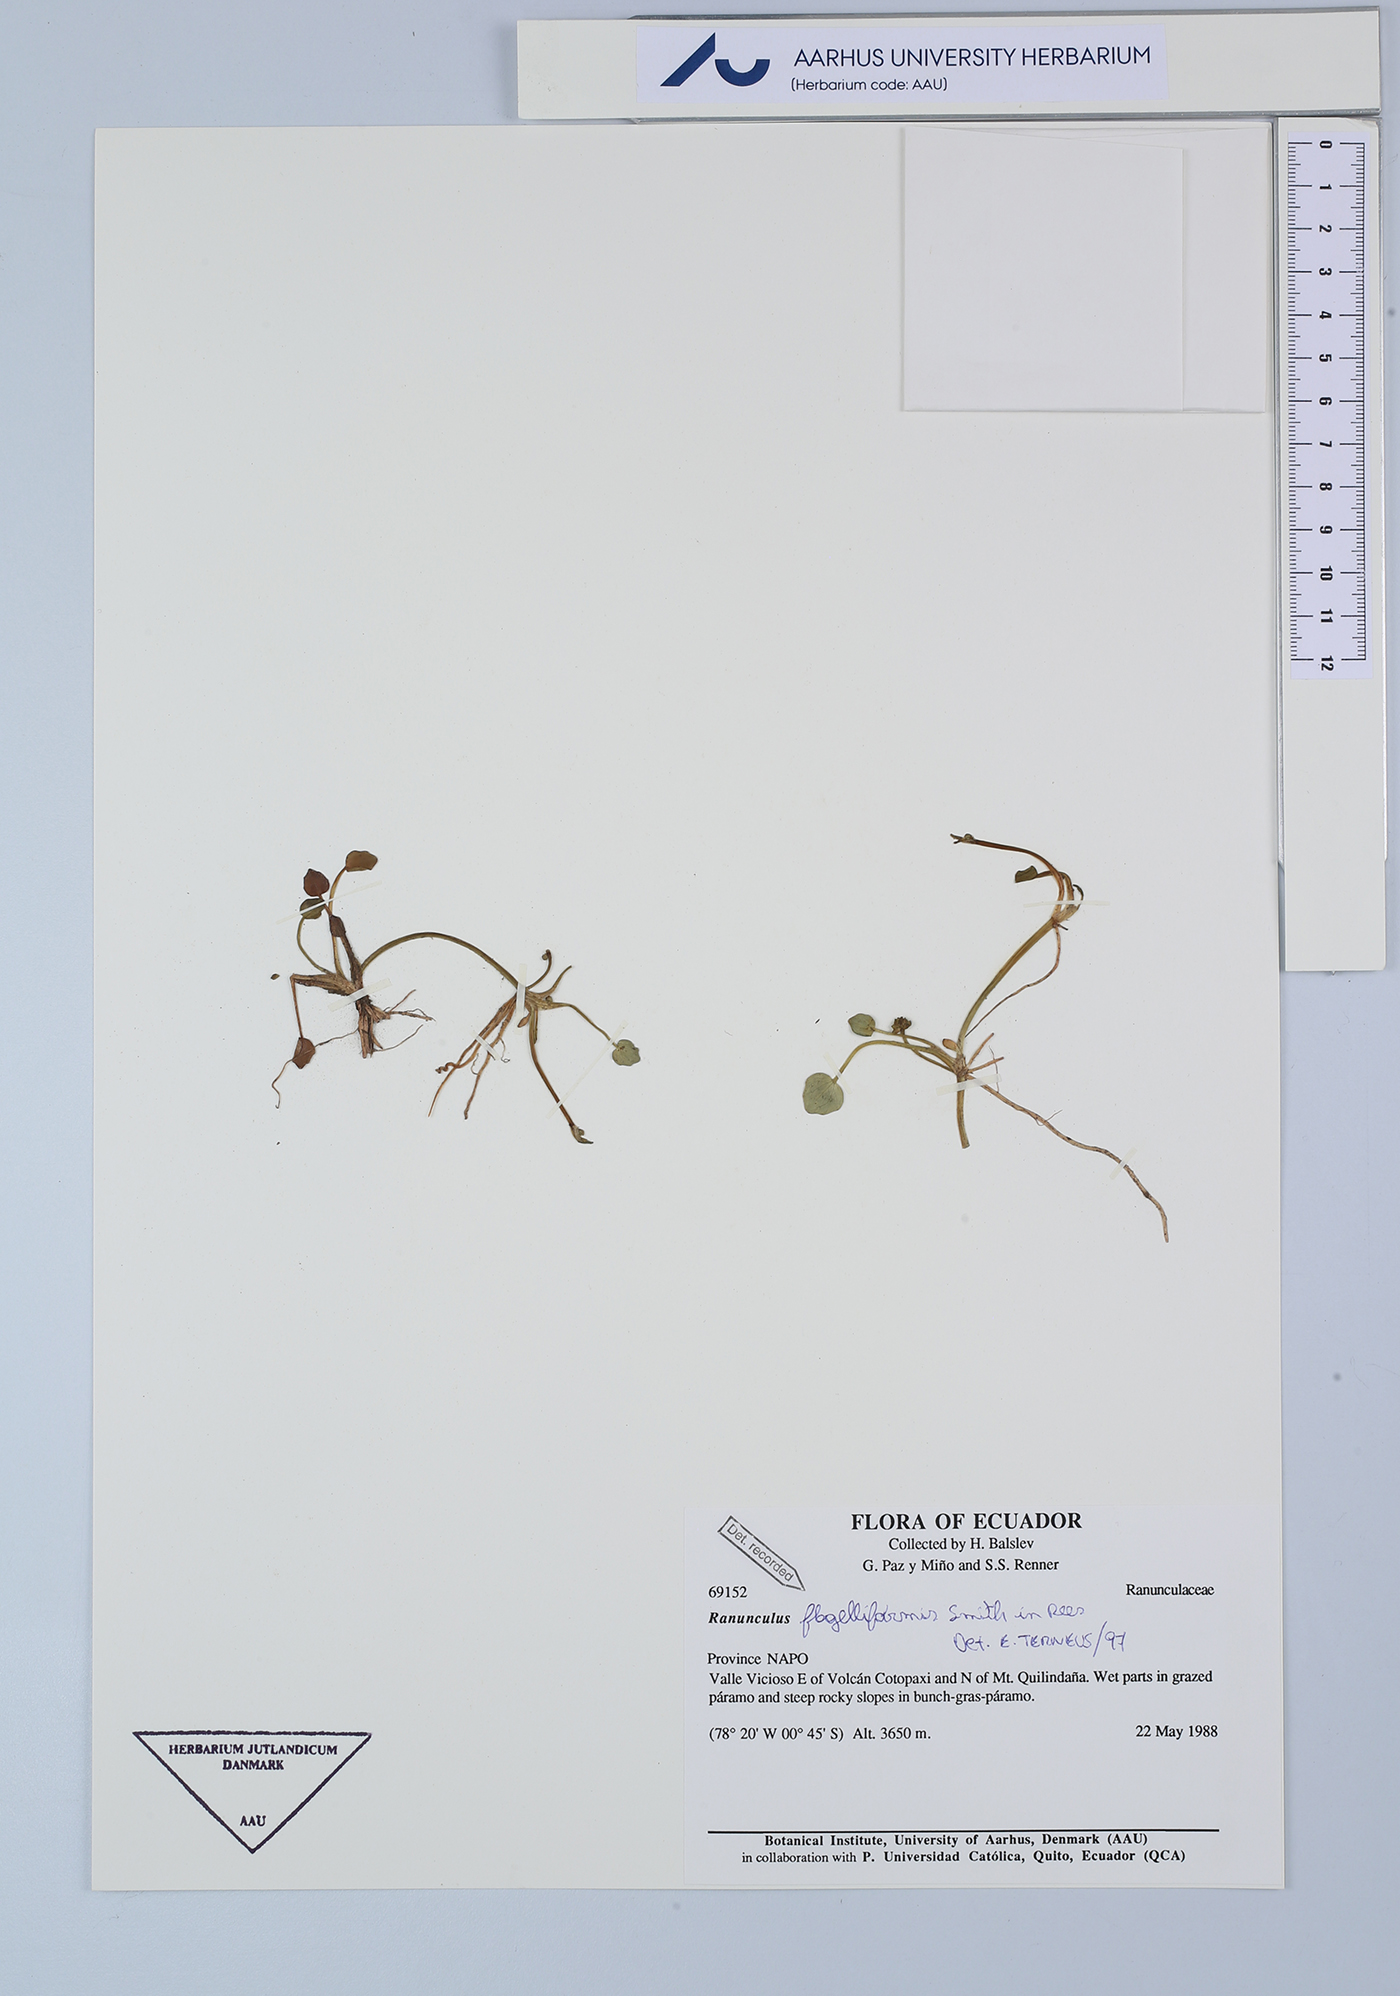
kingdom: Plantae
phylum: Tracheophyta
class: Magnoliopsida
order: Ranunculales
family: Ranunculaceae
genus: Ranunculus
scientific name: Ranunculus flagelliformis
